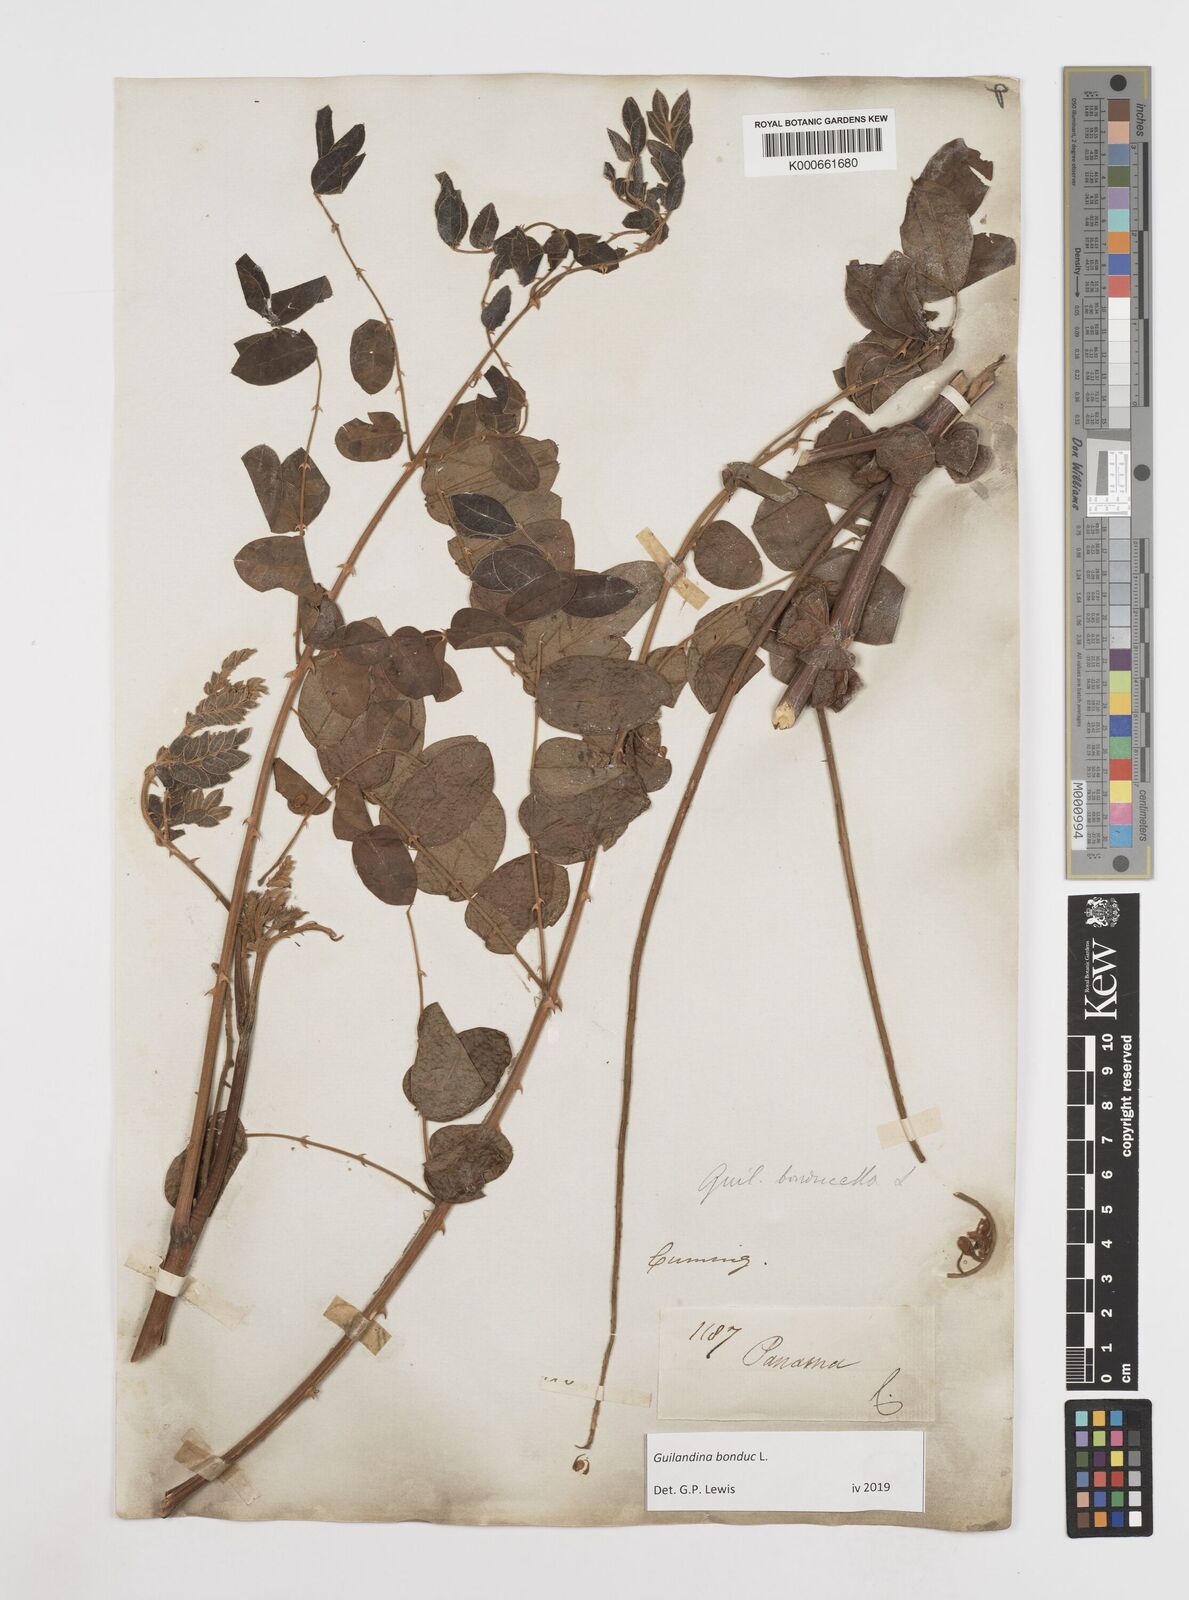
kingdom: Plantae
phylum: Tracheophyta
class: Magnoliopsida
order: Fabales
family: Fabaceae
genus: Guilandina
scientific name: Guilandina bonduc
